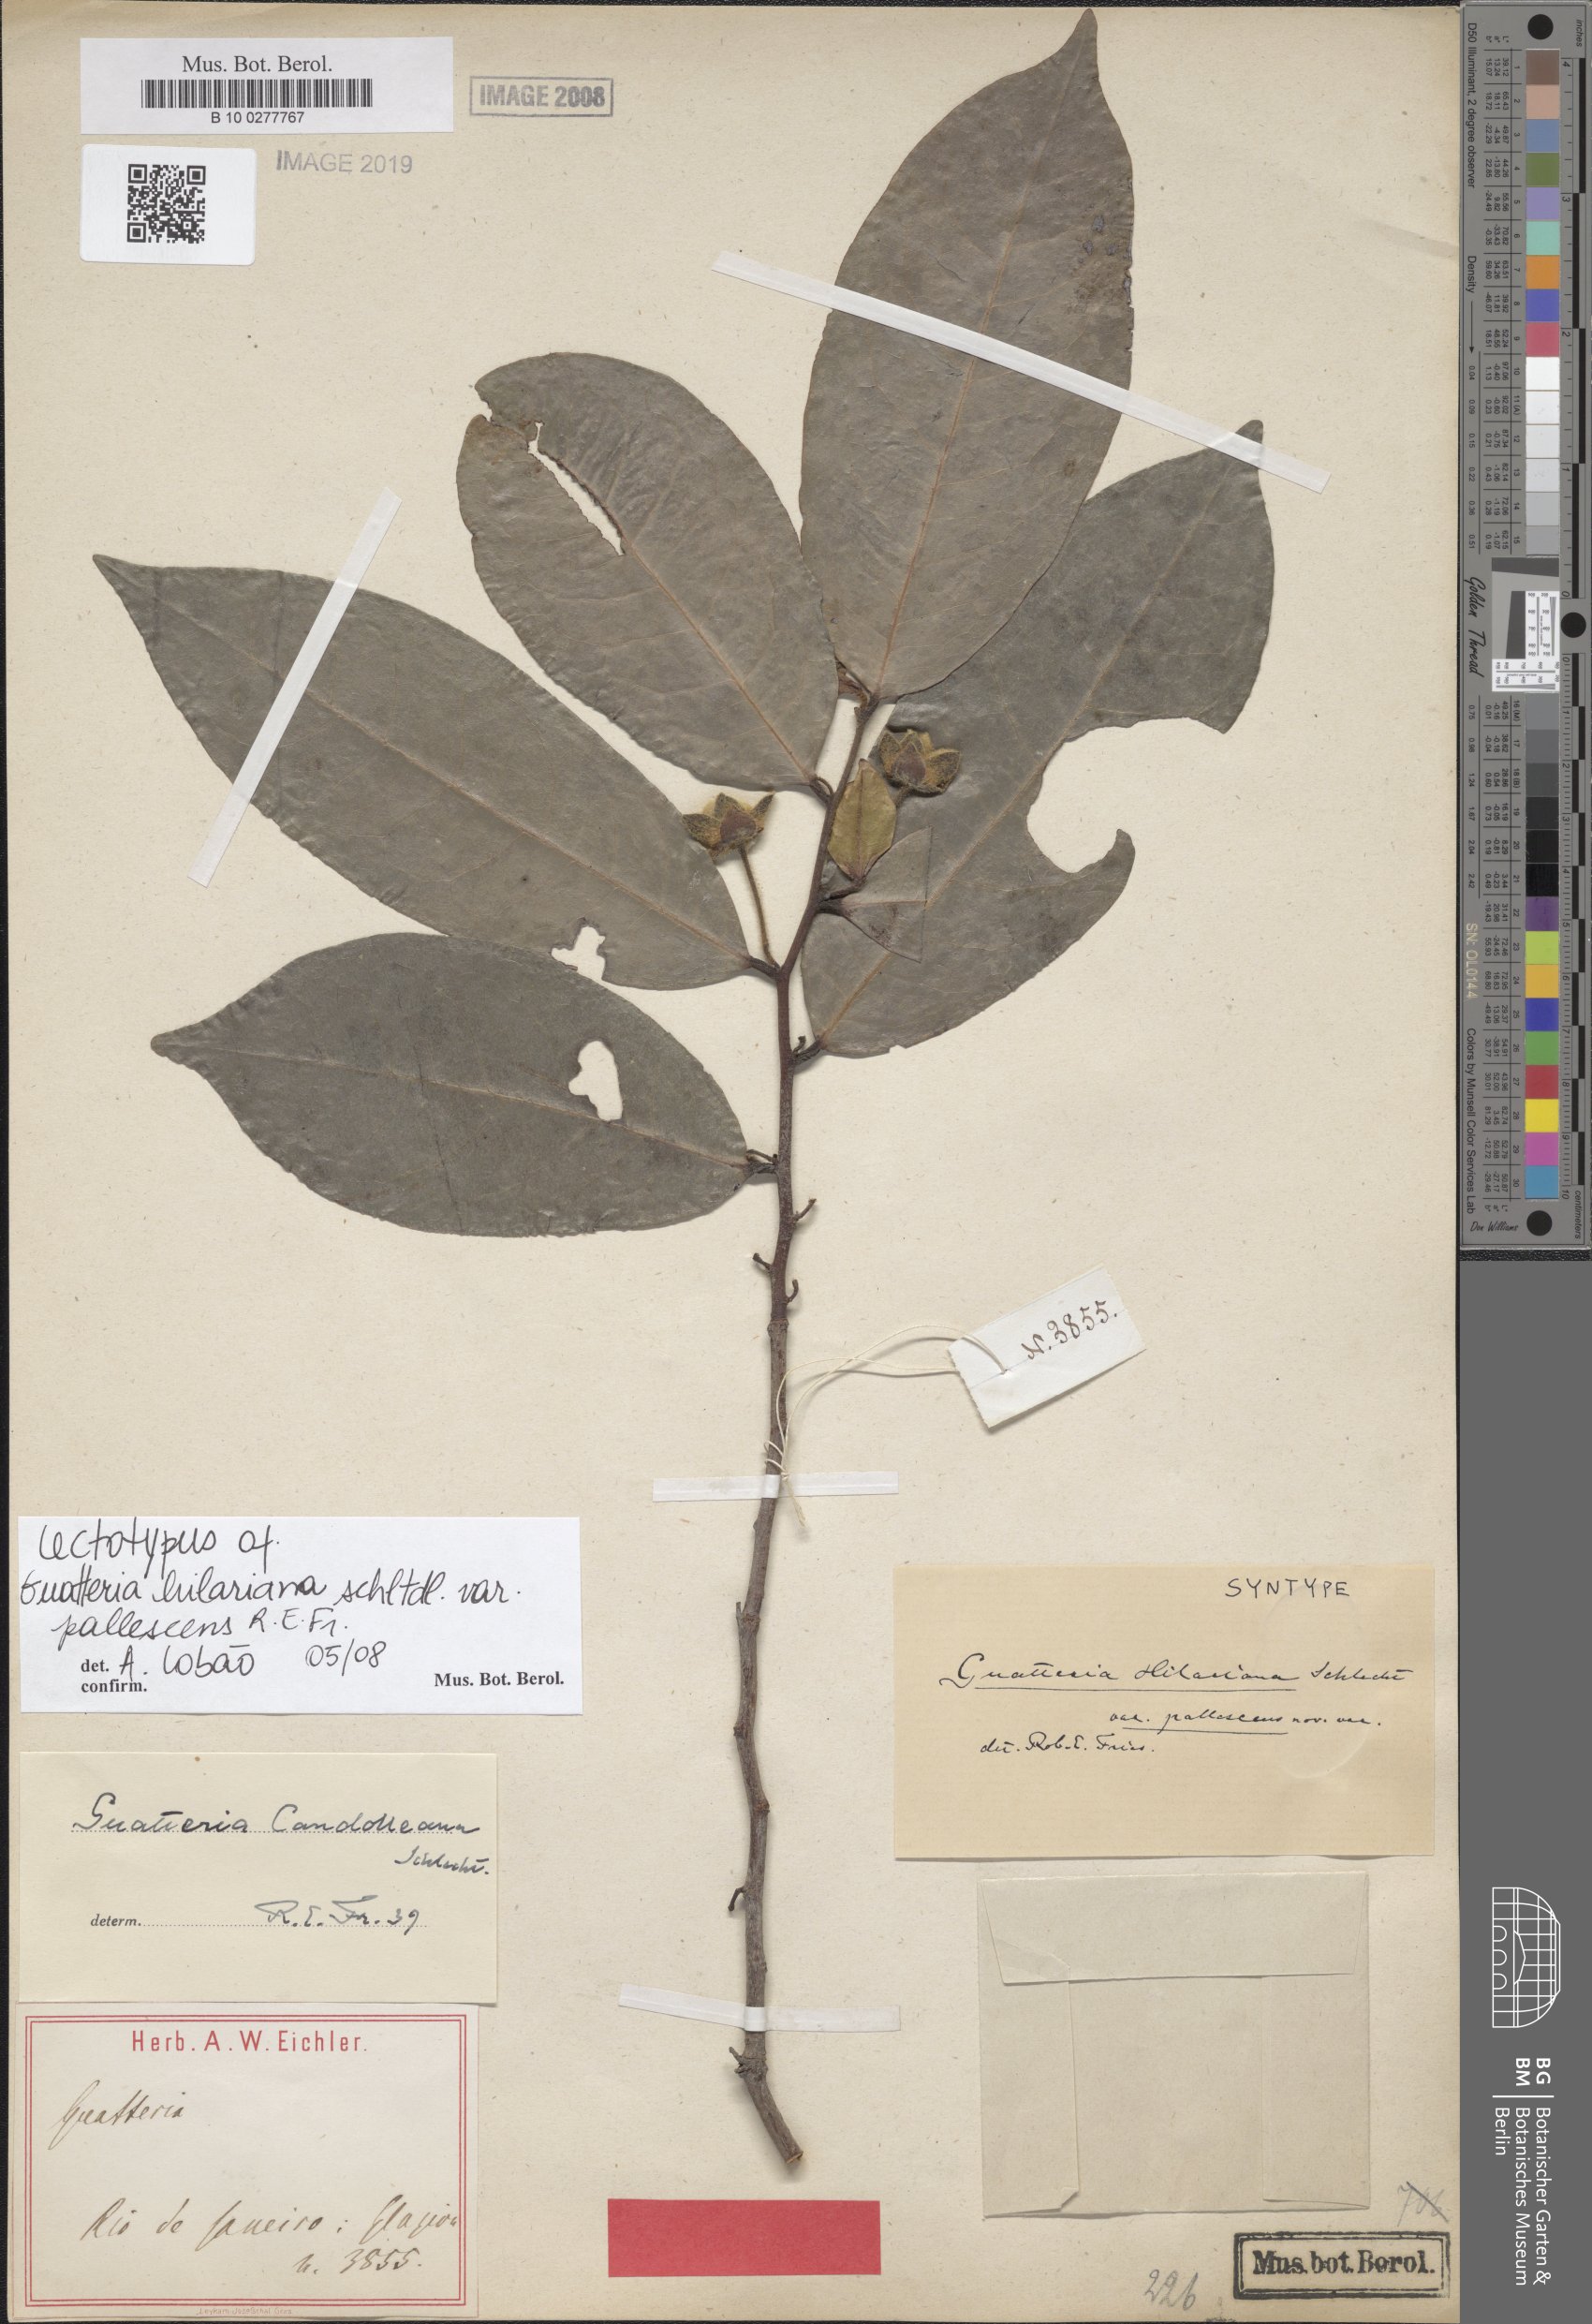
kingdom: Plantae
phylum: Tracheophyta
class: Magnoliopsida
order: Magnoliales
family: Annonaceae
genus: Guatteria
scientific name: Guatteria candolleana
